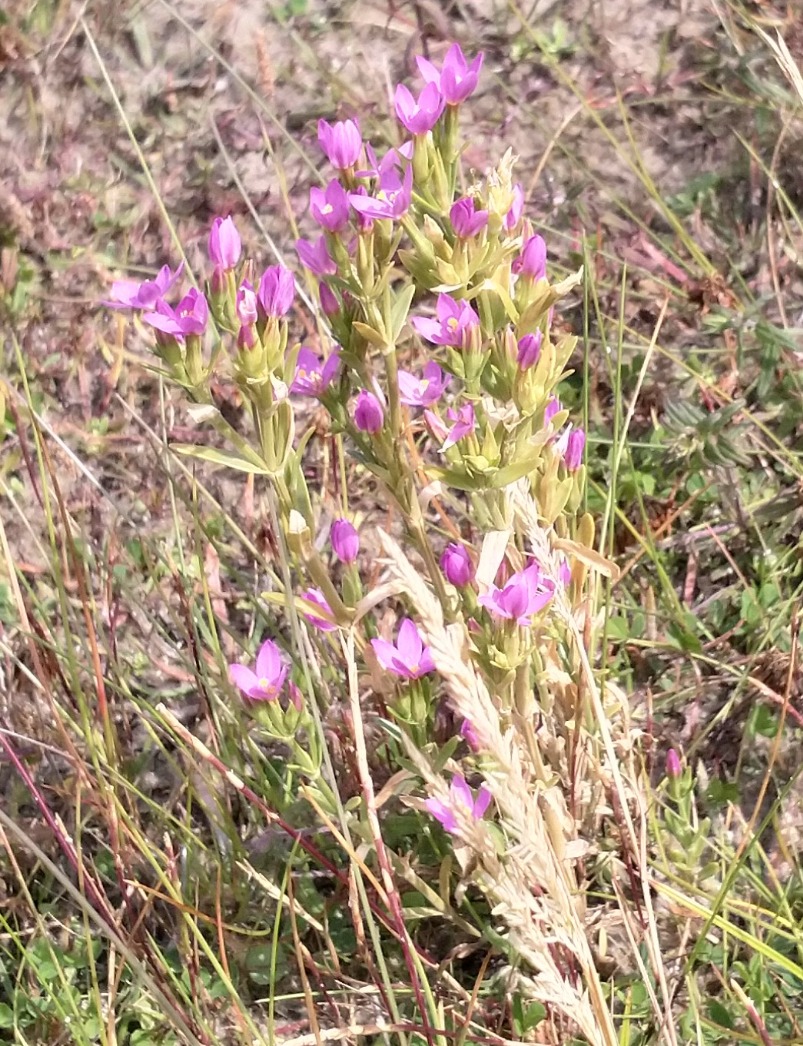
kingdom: Plantae
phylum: Tracheophyta
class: Magnoliopsida
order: Gentianales
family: Gentianaceae
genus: Centaurium
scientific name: Centaurium littorale
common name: Strand-tusindgylden
